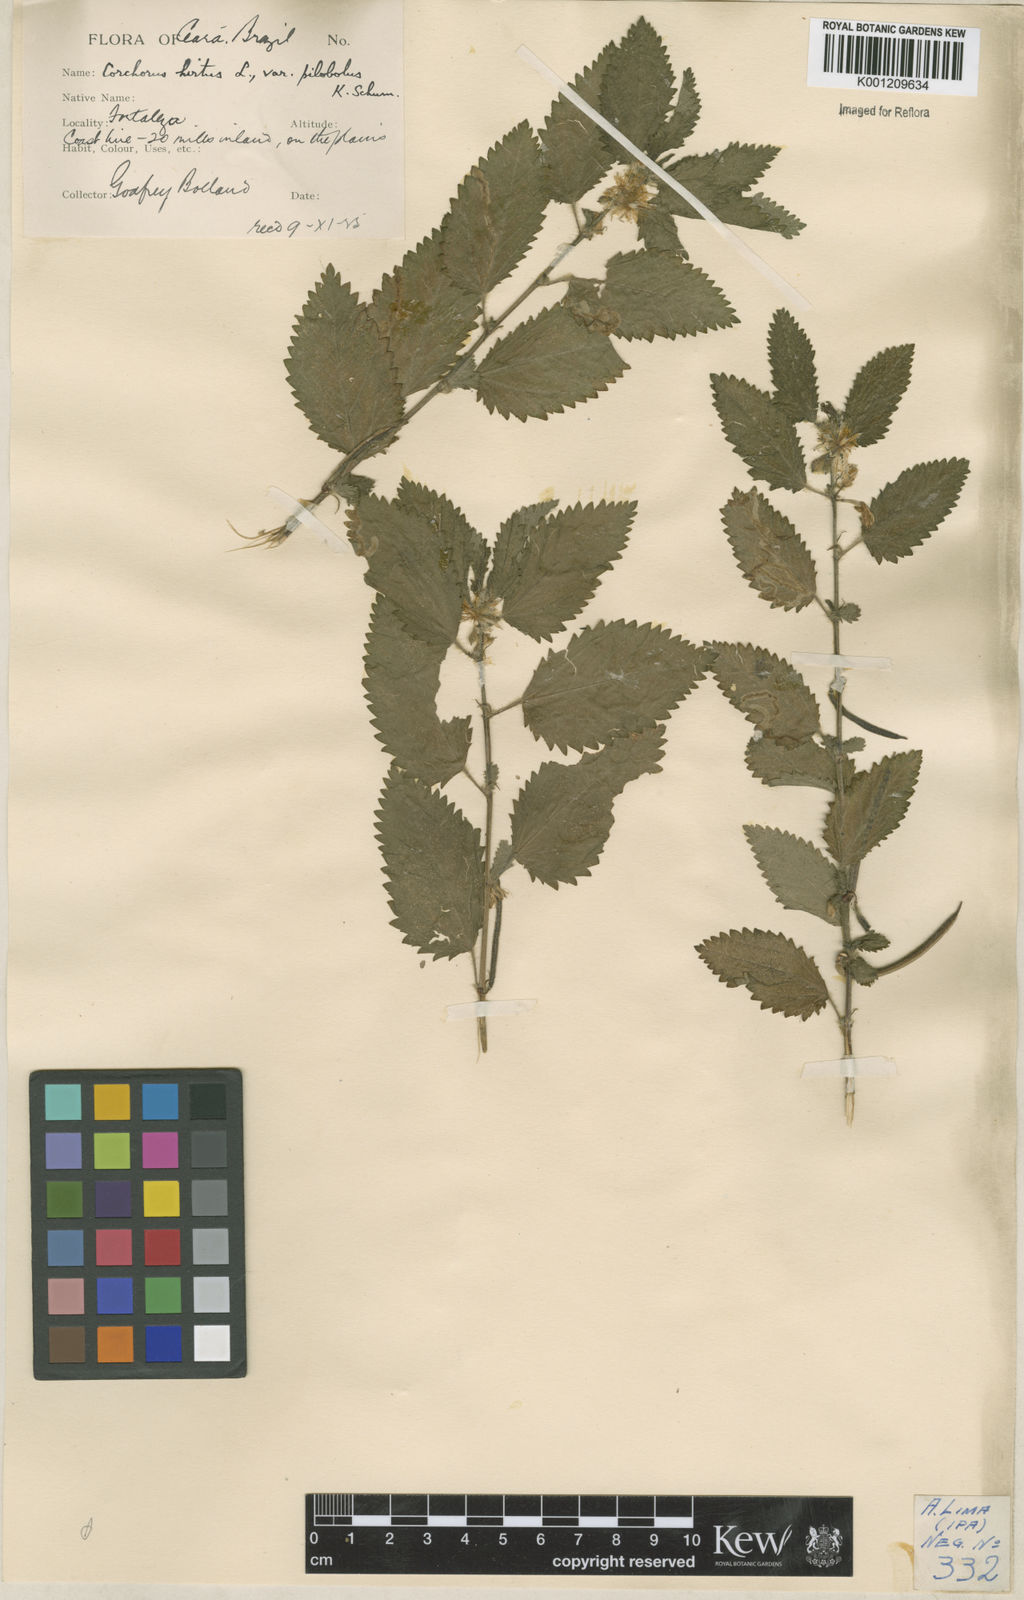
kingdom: Plantae
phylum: Tracheophyta
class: Magnoliopsida
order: Malvales
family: Malvaceae
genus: Corchorus
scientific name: Corchorus hirtus
